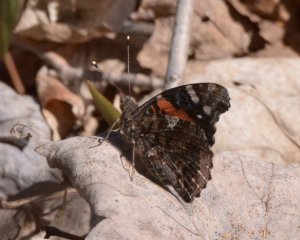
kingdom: Animalia
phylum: Arthropoda
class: Insecta
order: Lepidoptera
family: Nymphalidae
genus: Vanessa
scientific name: Vanessa atalanta
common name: Red Admiral
